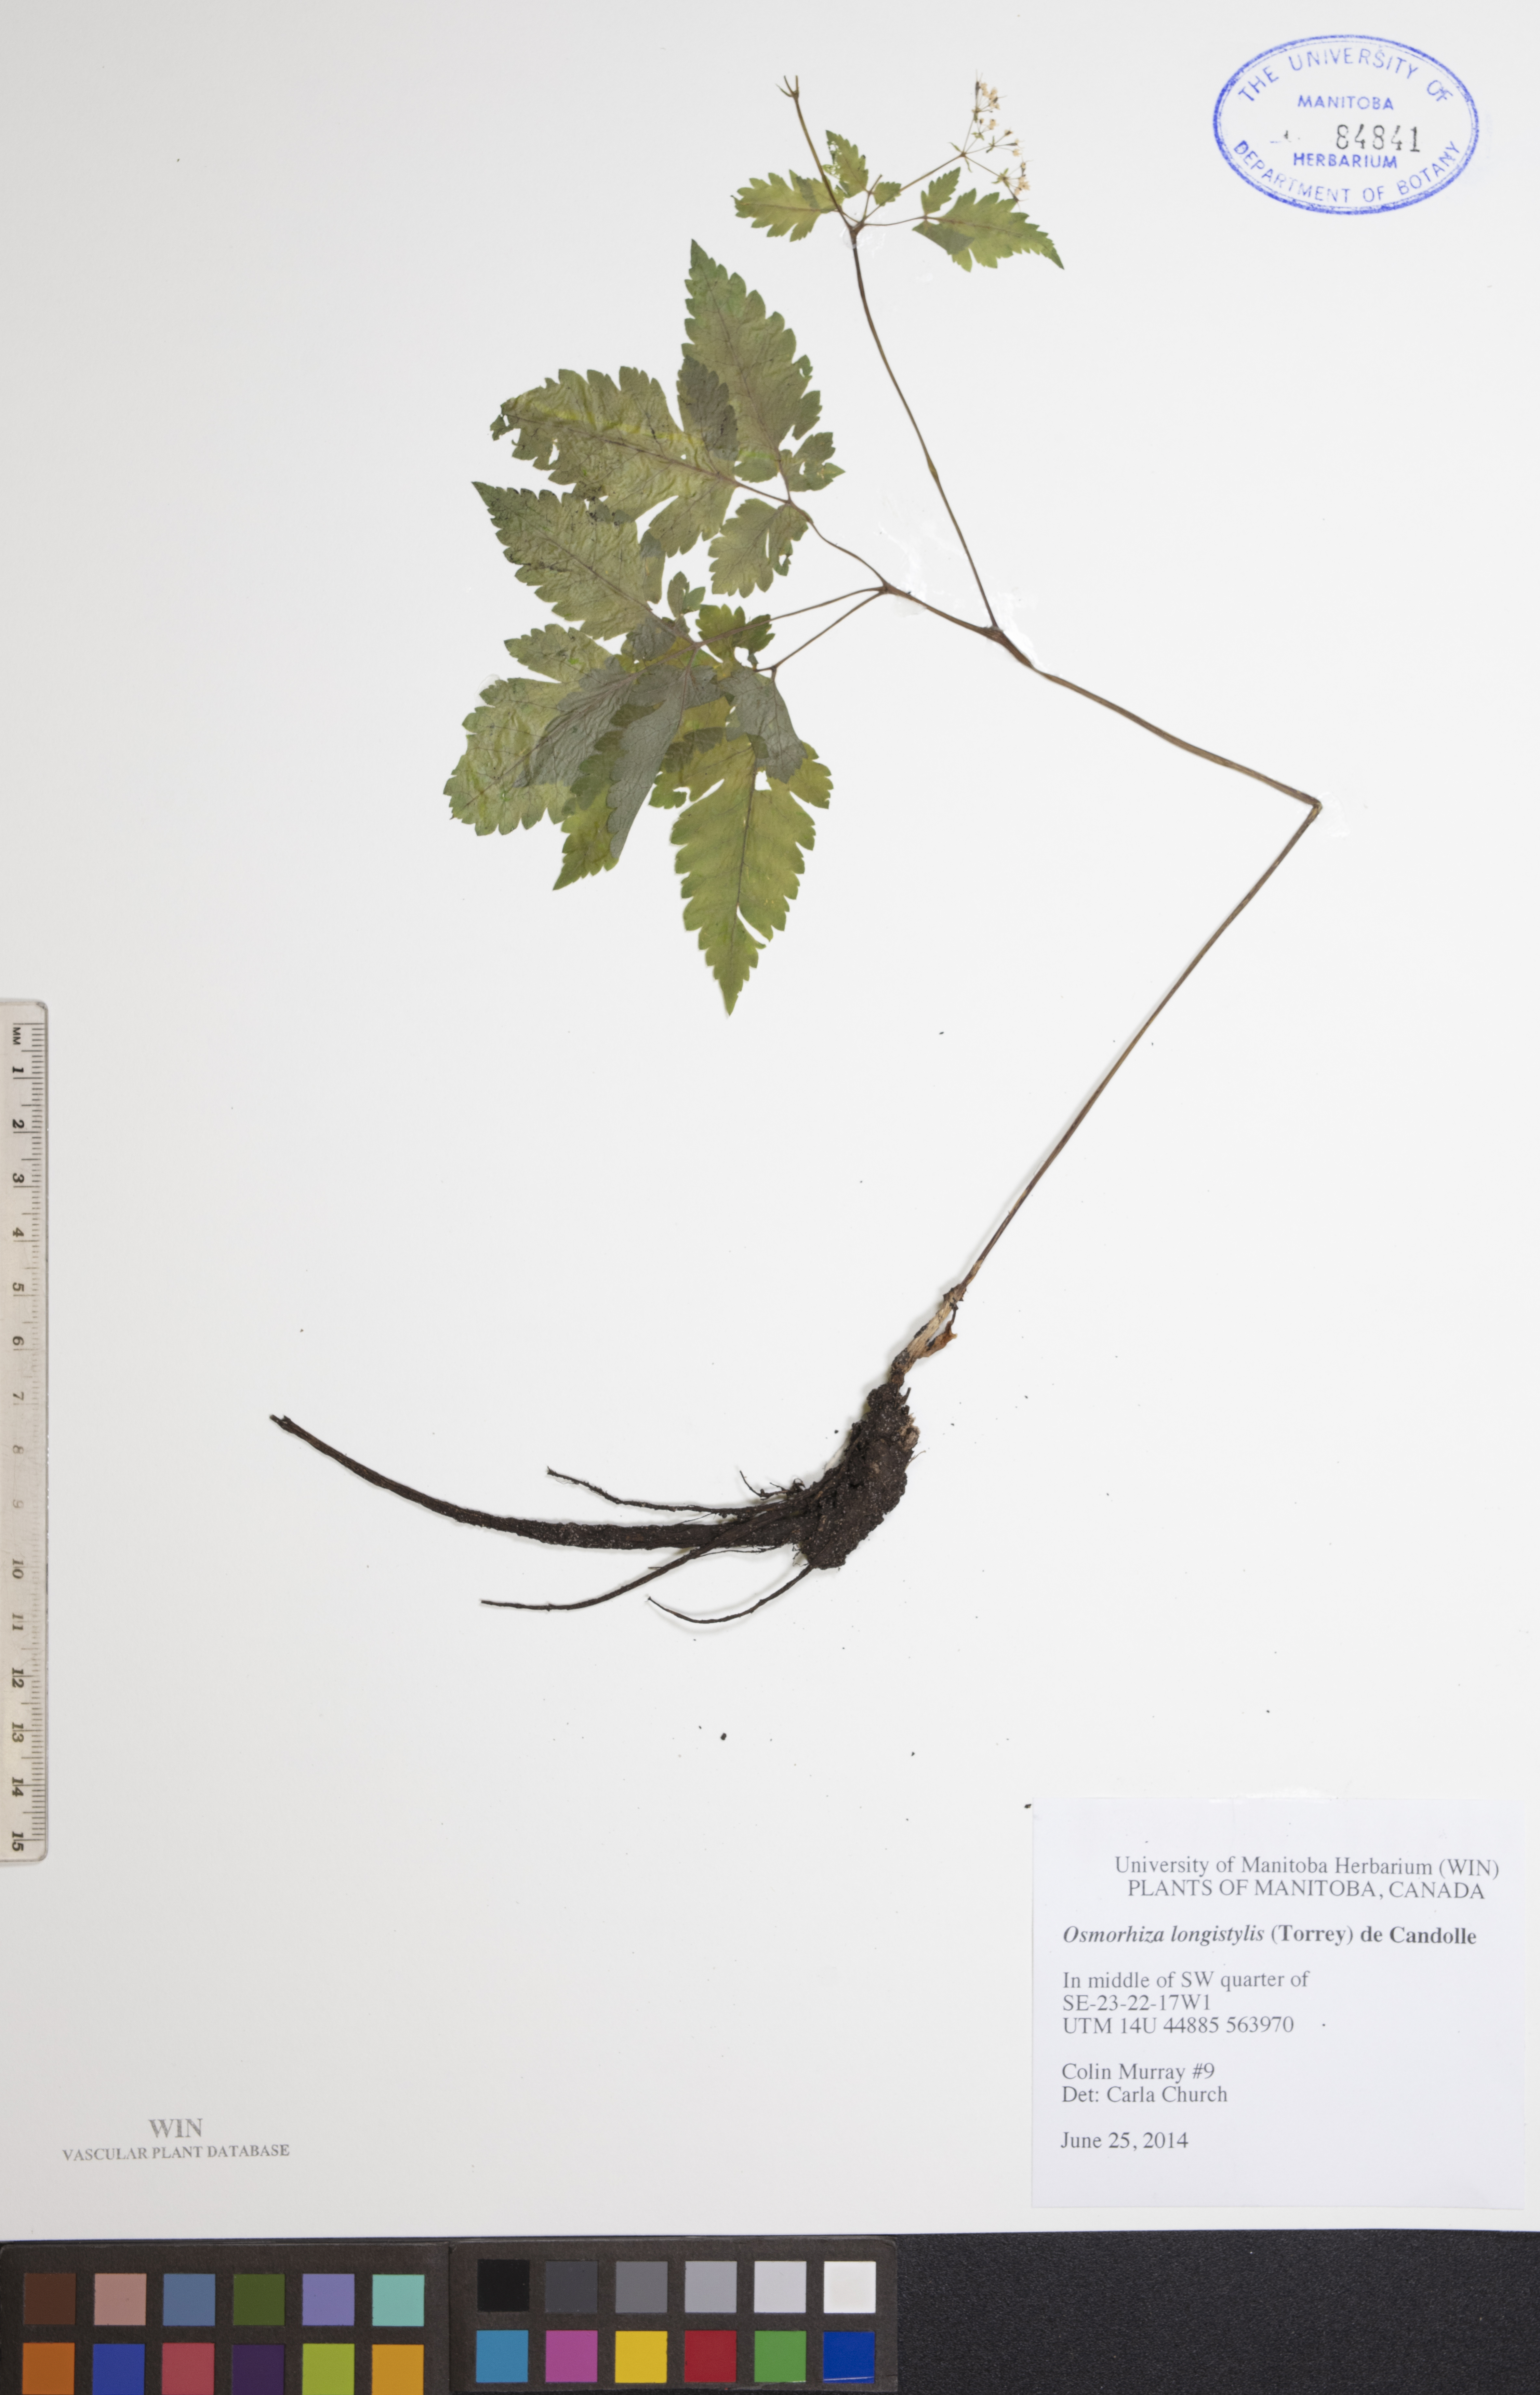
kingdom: Plantae
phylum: Tracheophyta
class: Magnoliopsida
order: Apiales
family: Apiaceae
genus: Osmorhiza
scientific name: Osmorhiza longistylis
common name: Smooth sweet cicely
